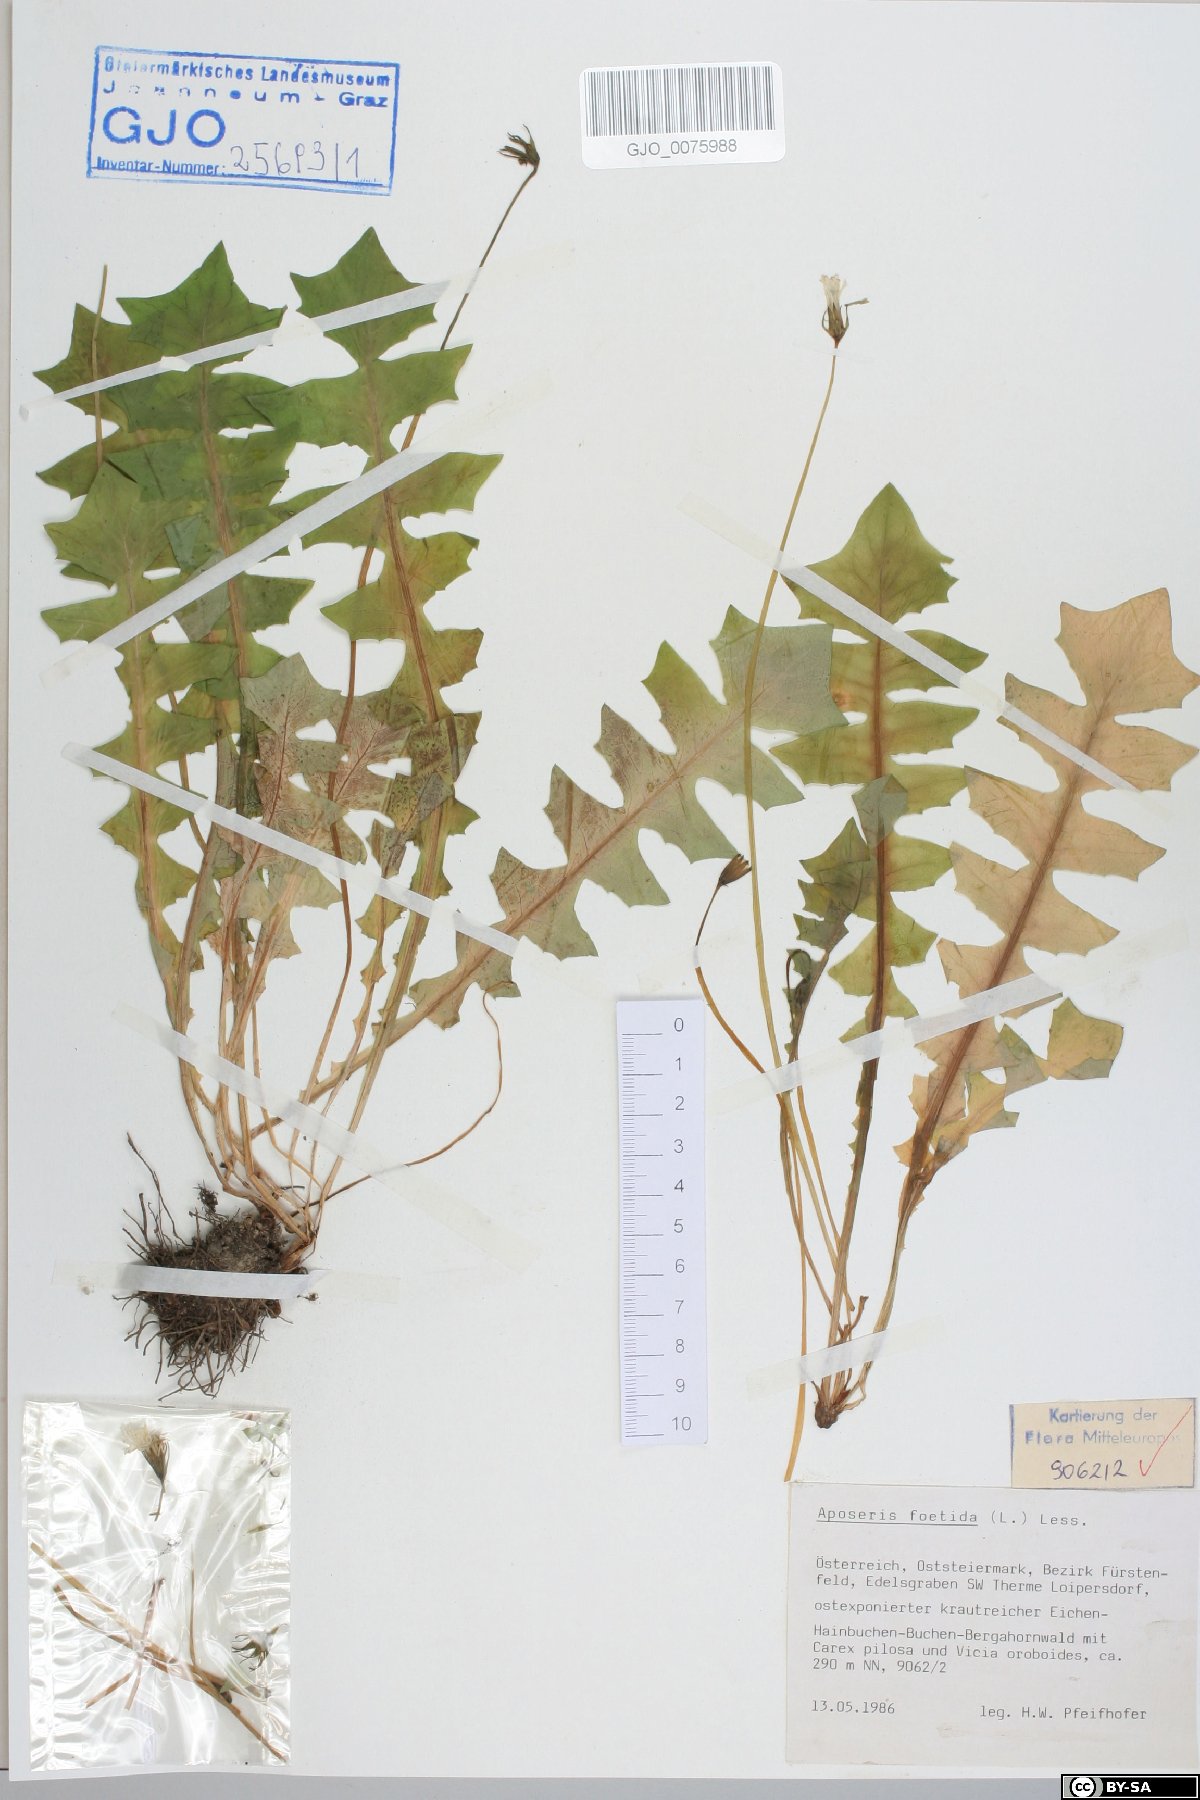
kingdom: Plantae
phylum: Tracheophyta
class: Magnoliopsida
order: Asterales
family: Asteraceae
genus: Aposeris
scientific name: Aposeris foetida
